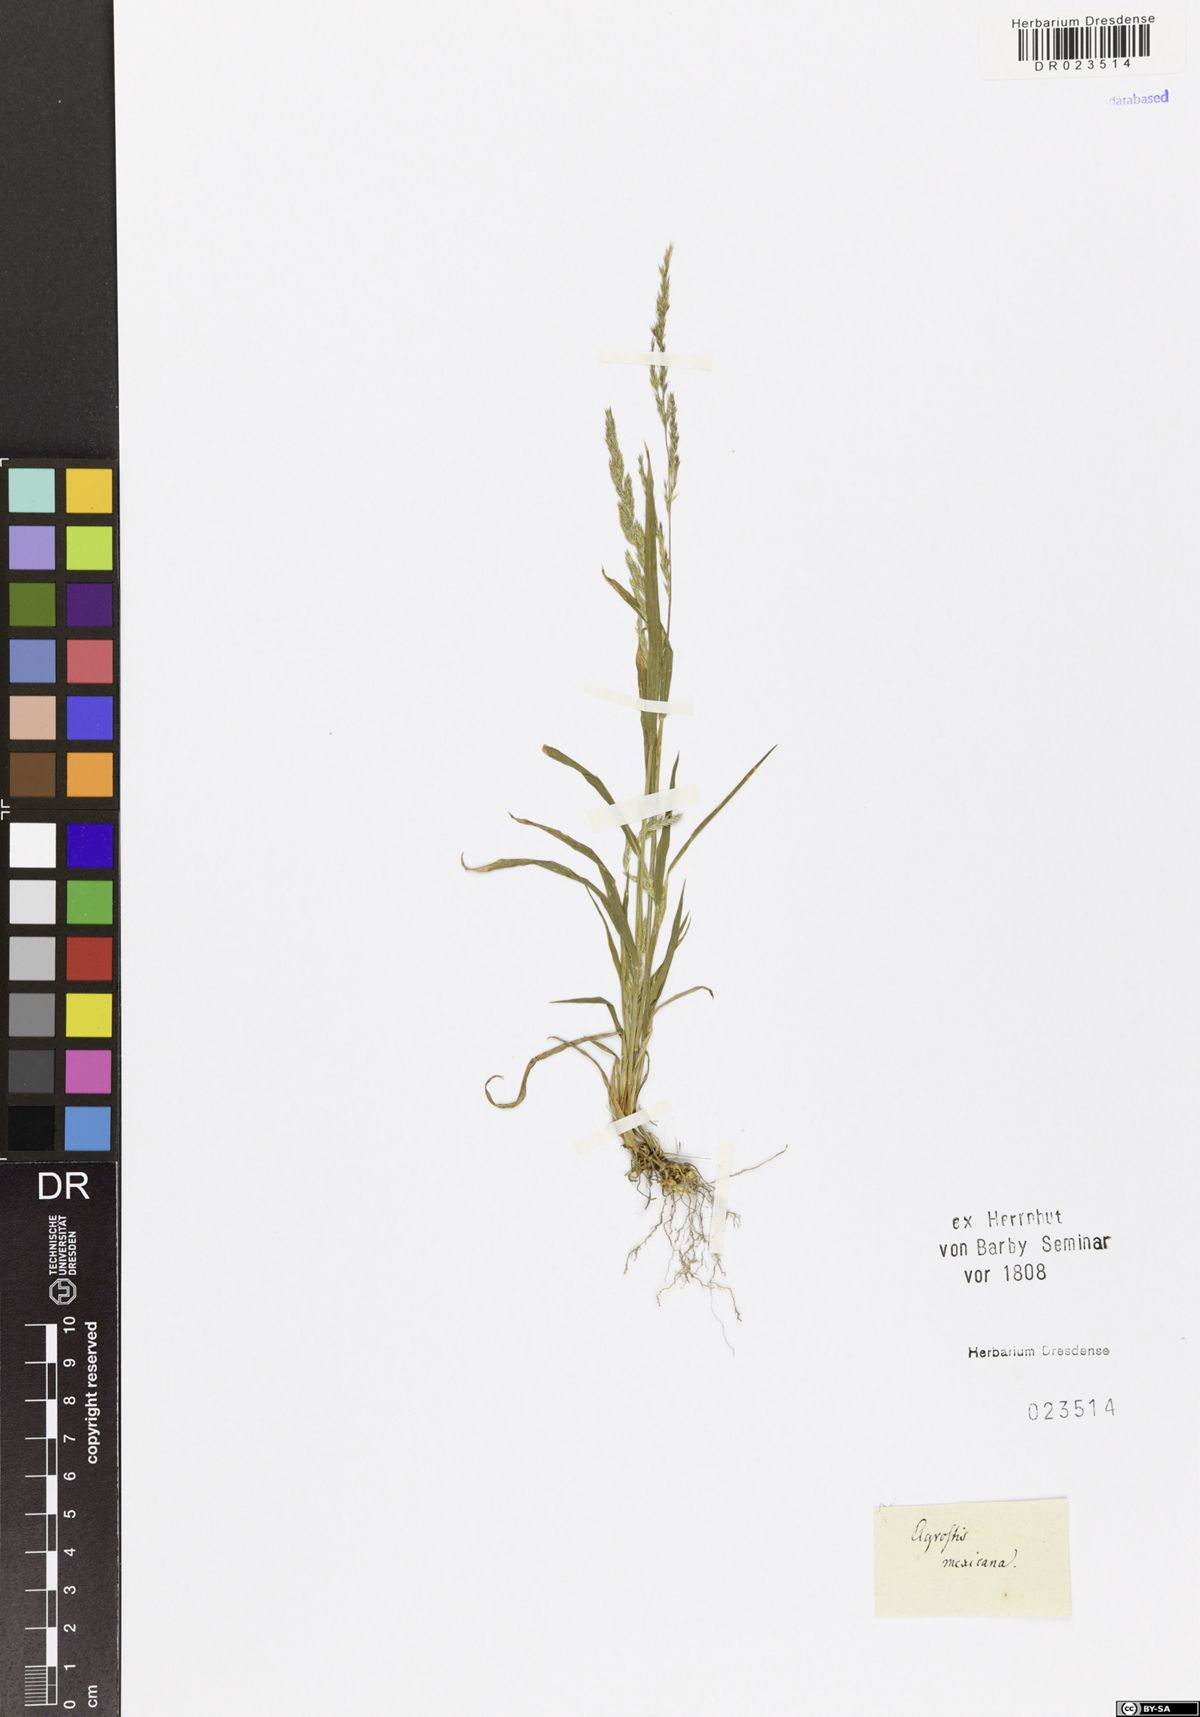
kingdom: Plantae
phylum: Tracheophyta
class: Liliopsida
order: Poales
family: Poaceae
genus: Muhlenbergia
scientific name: Muhlenbergia mexicana
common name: Mexican muhly
